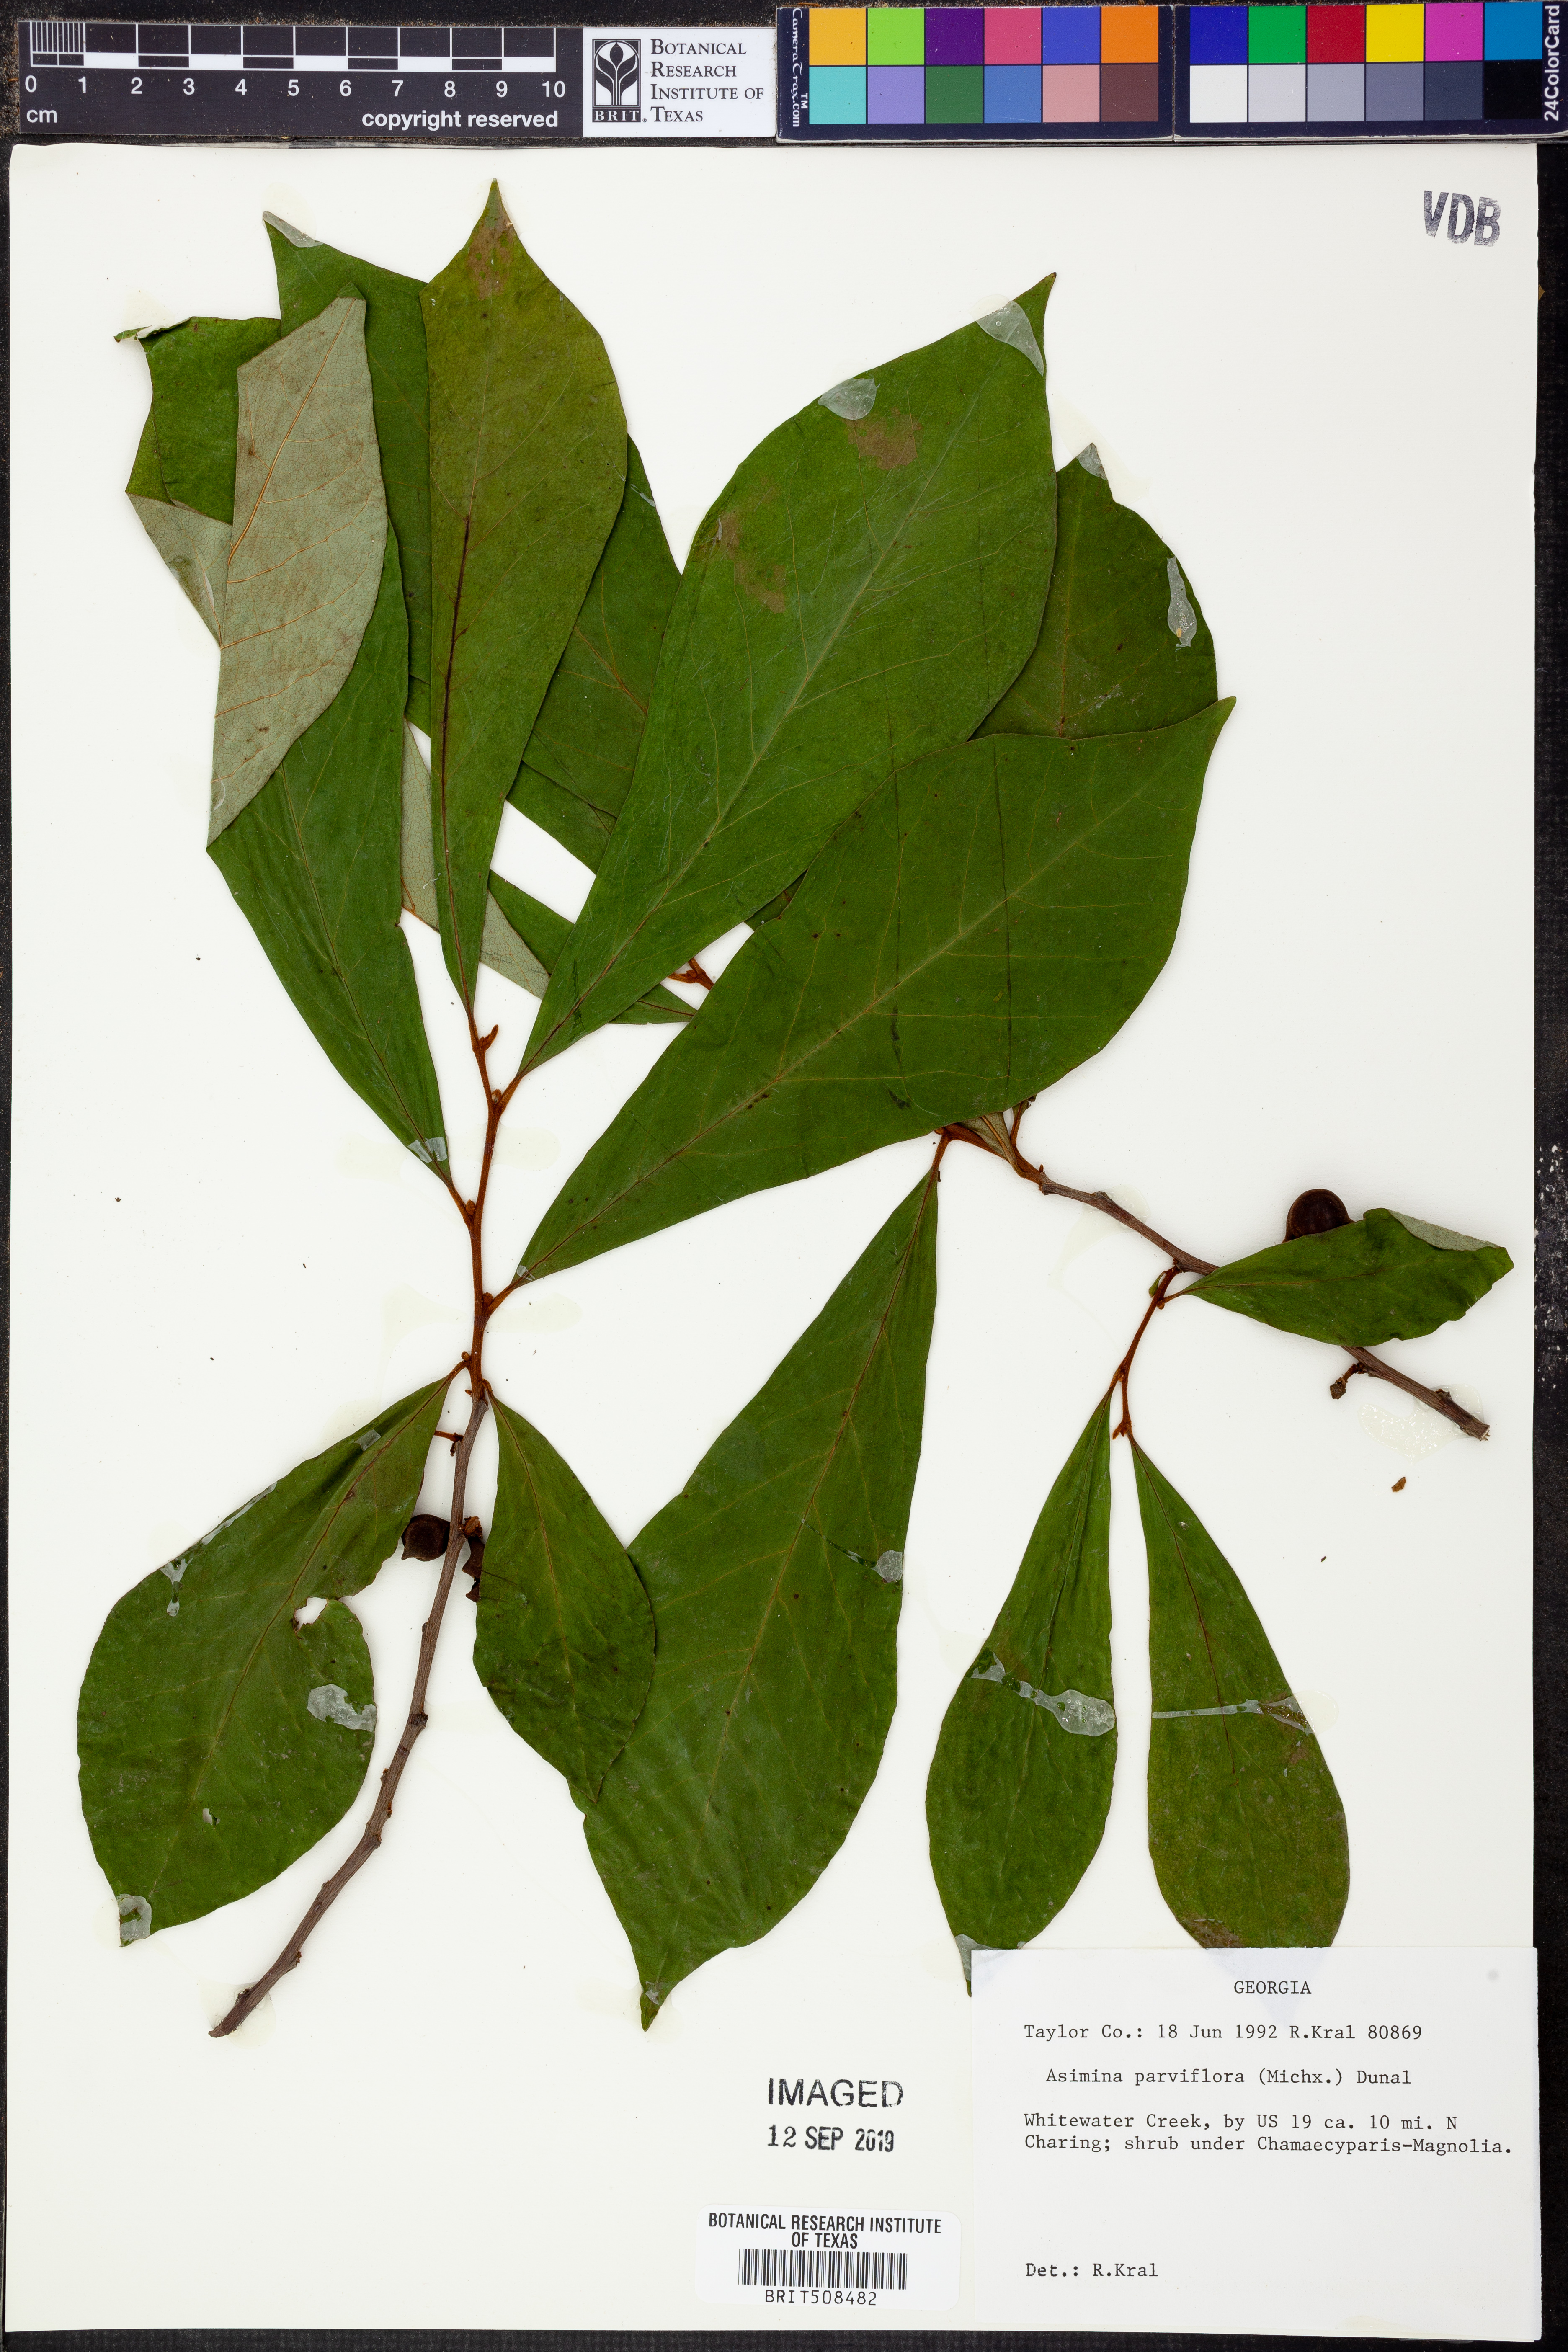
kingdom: Plantae
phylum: Tracheophyta
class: Magnoliopsida
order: Magnoliales
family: Annonaceae
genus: Asimina
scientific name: Asimina parviflora
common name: Dwarf pawpaw
